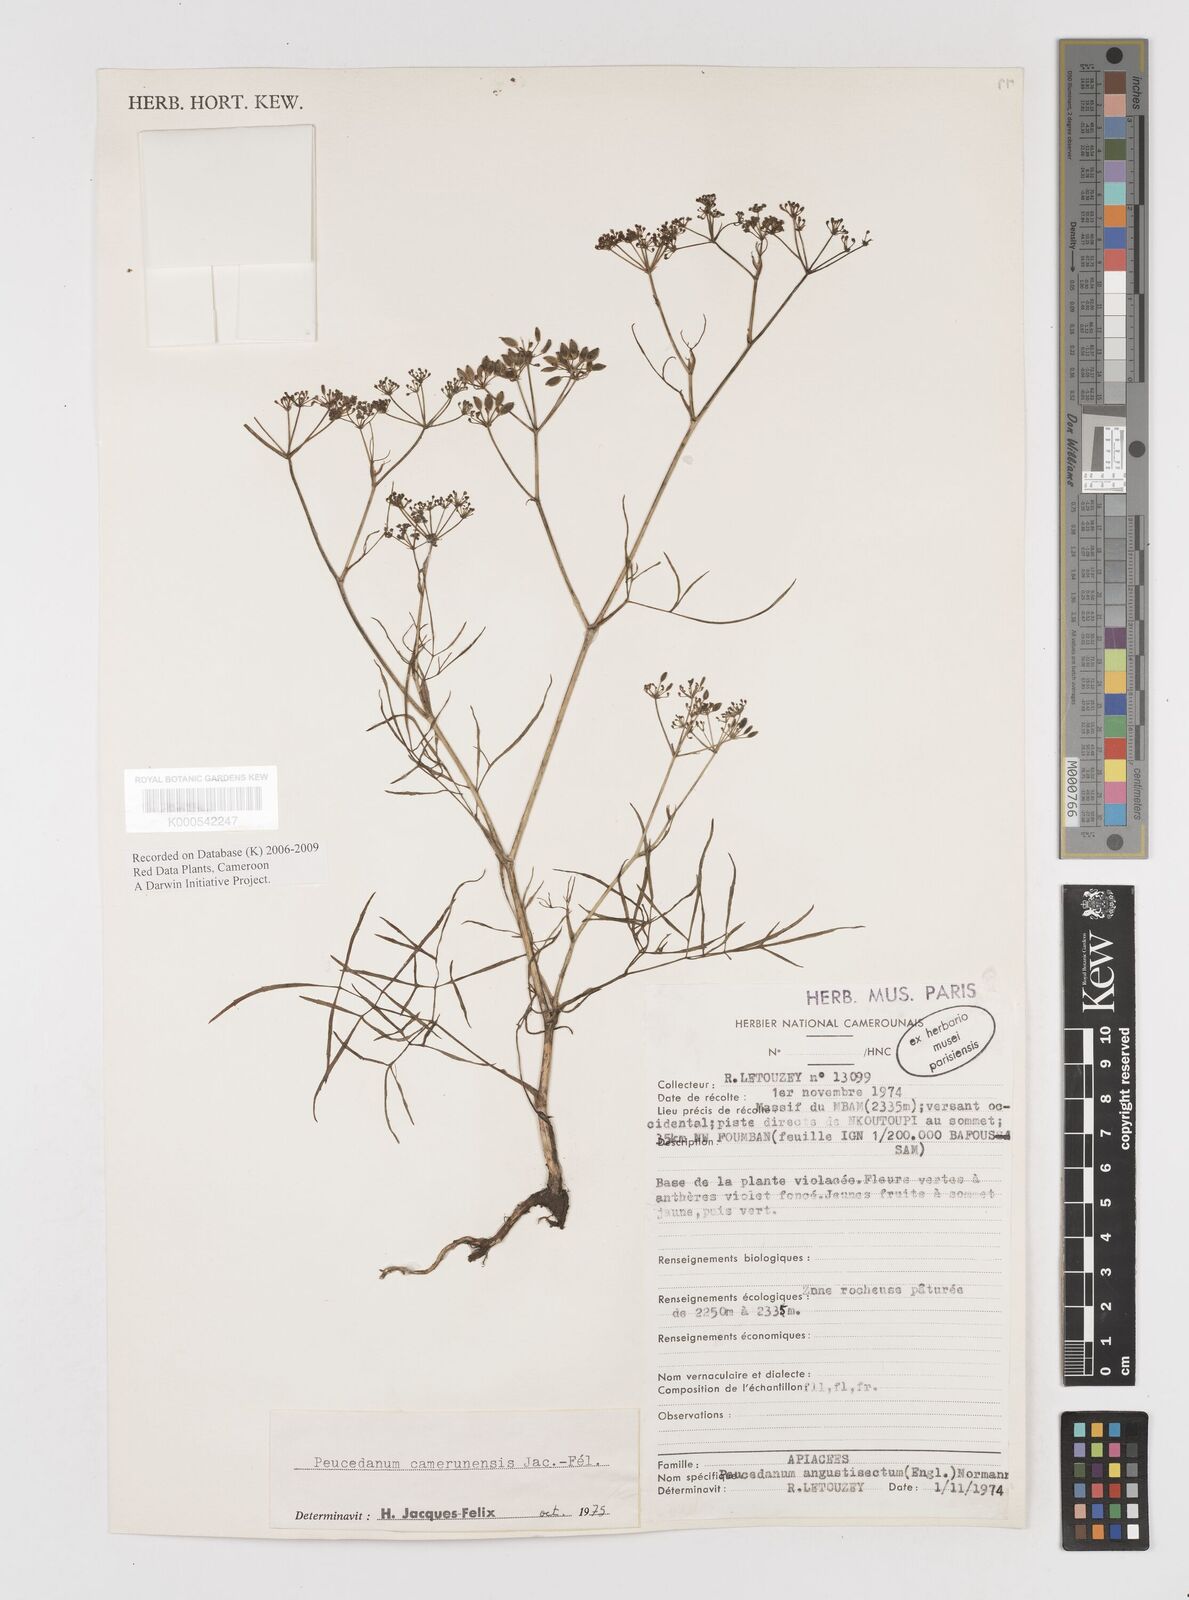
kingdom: Plantae
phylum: Tracheophyta
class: Magnoliopsida
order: Apiales
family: Apiaceae
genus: Lefebvrea
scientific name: Lefebvrea
